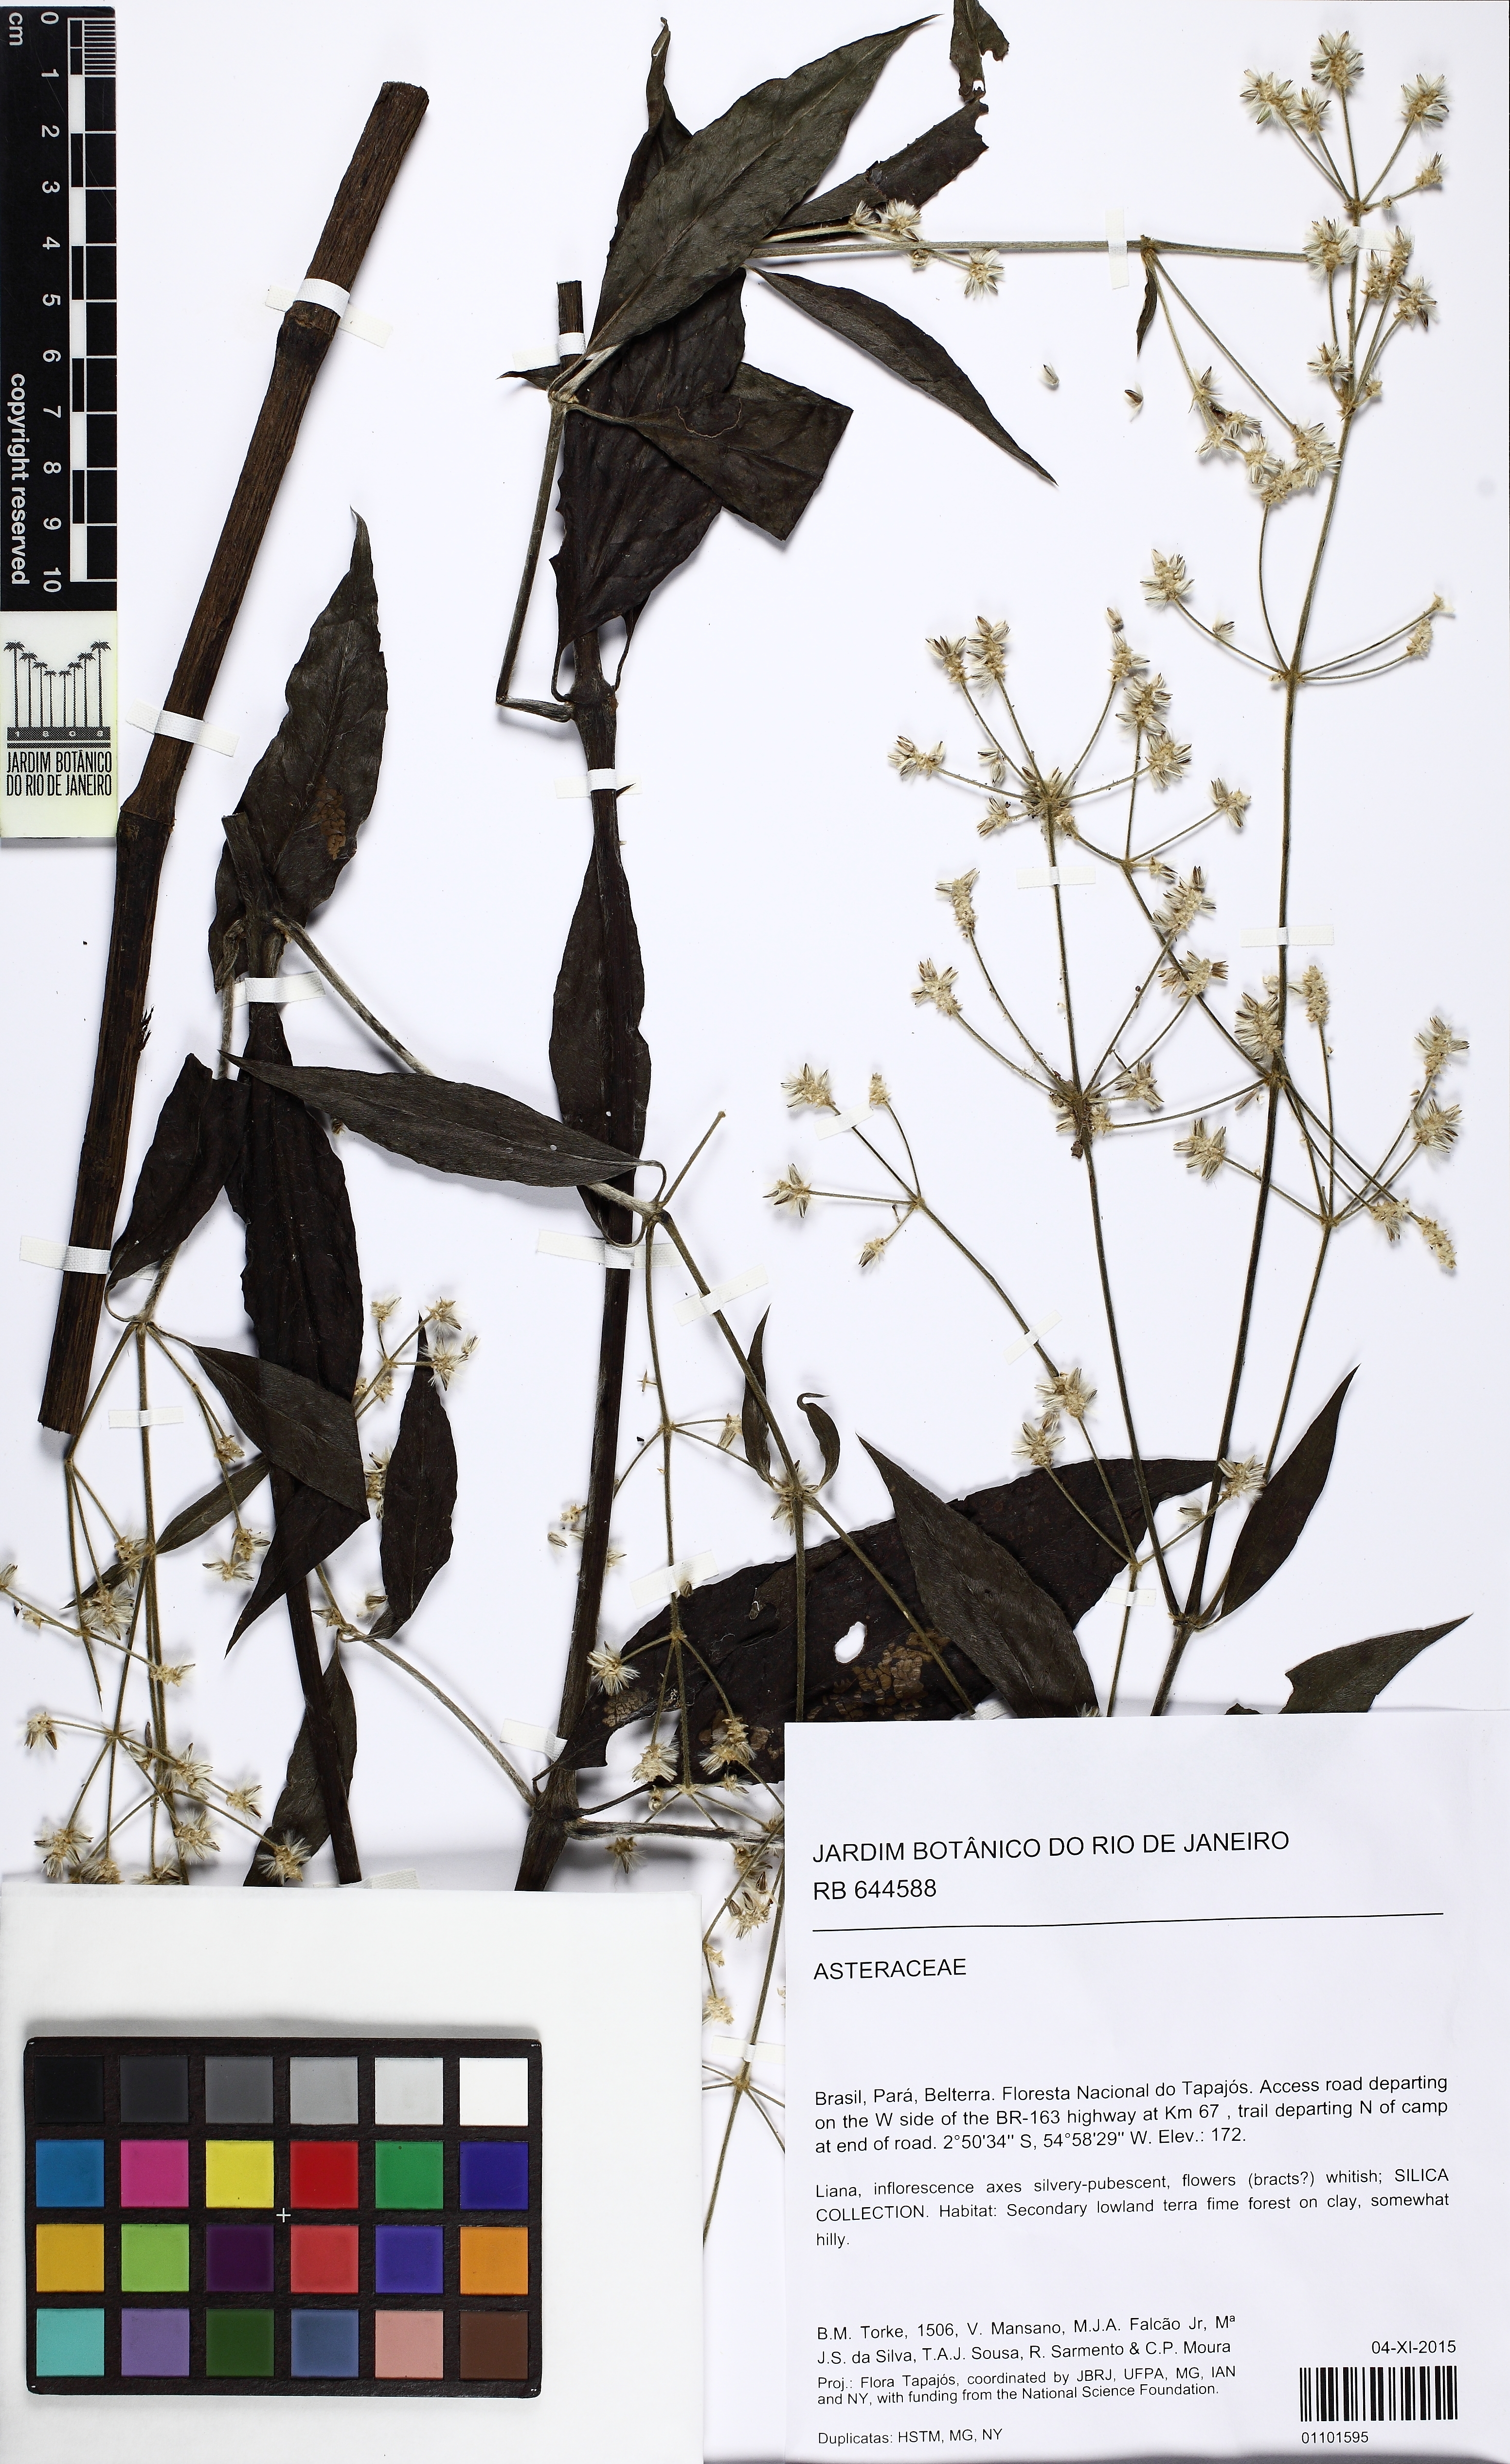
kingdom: Plantae
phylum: Tracheophyta
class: Magnoliopsida
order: Asterales
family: Asteraceae
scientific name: Asteraceae
